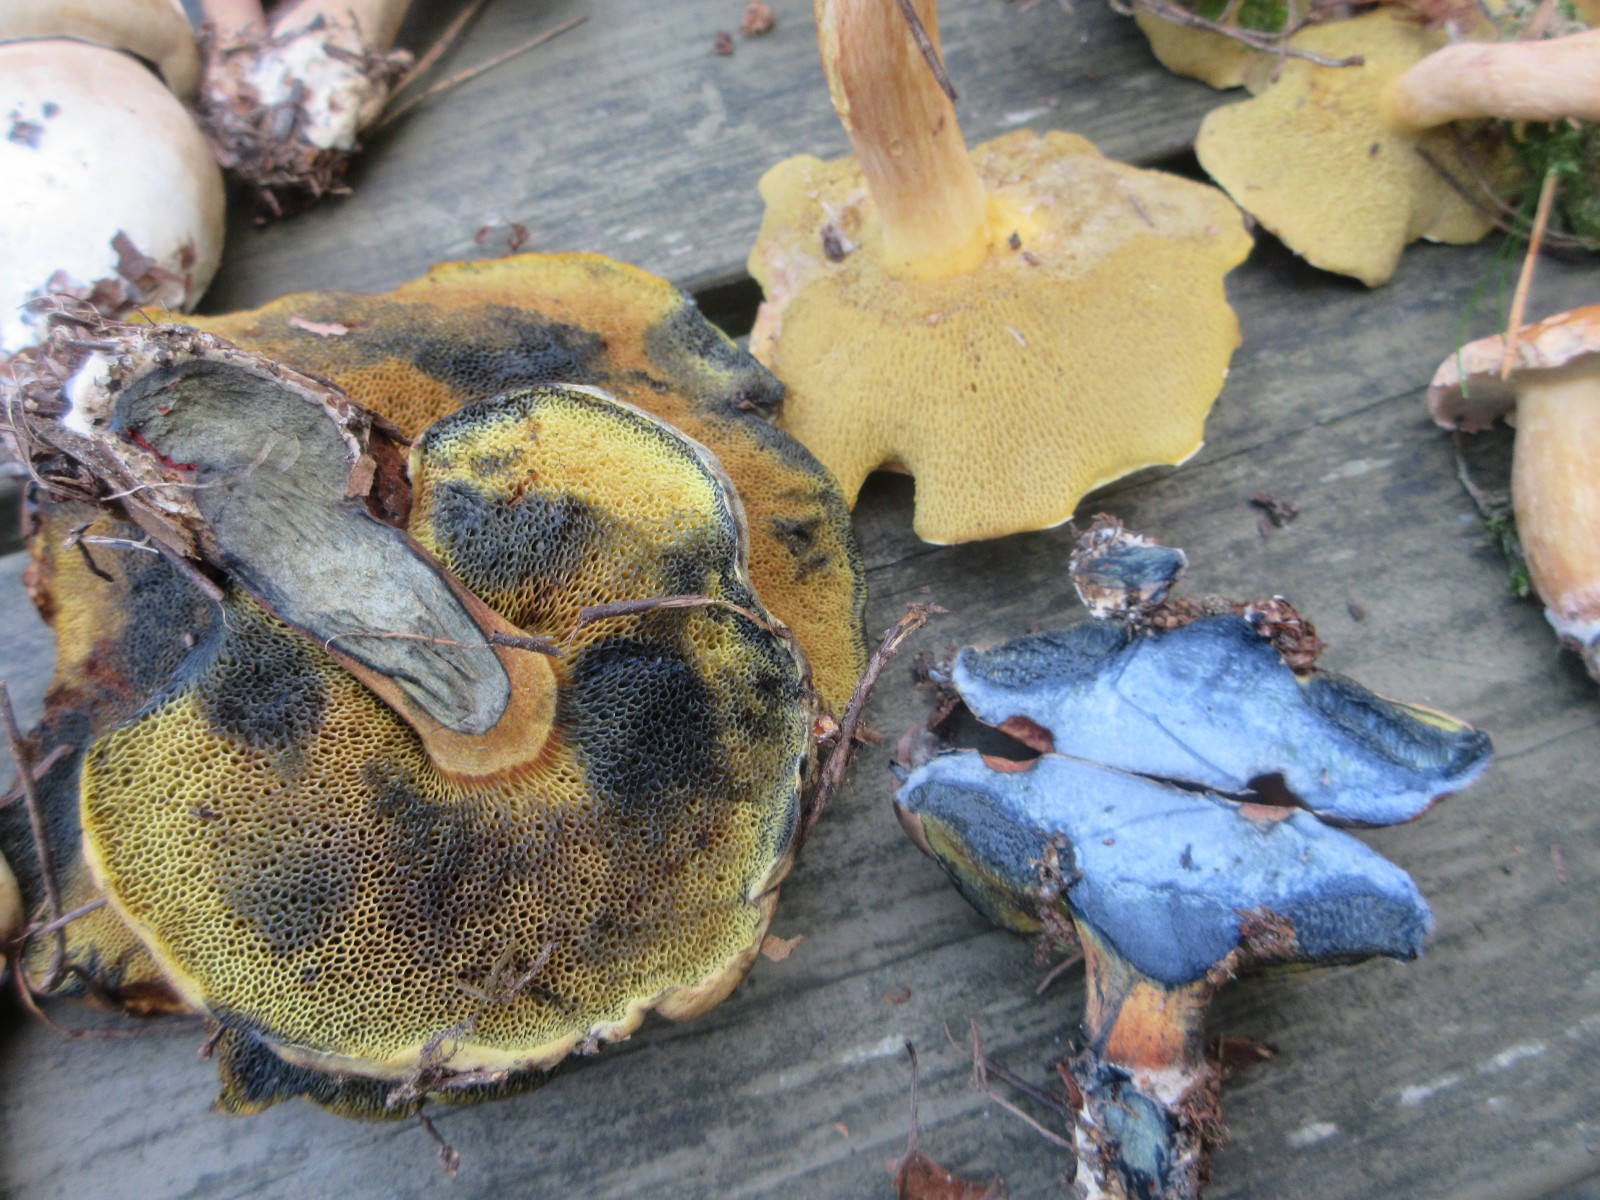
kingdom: Fungi
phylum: Basidiomycota
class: Agaricomycetes
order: Boletales
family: Boletaceae
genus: Cyanoboletus
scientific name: Cyanoboletus pulverulentus
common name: sortblånende rørhat
